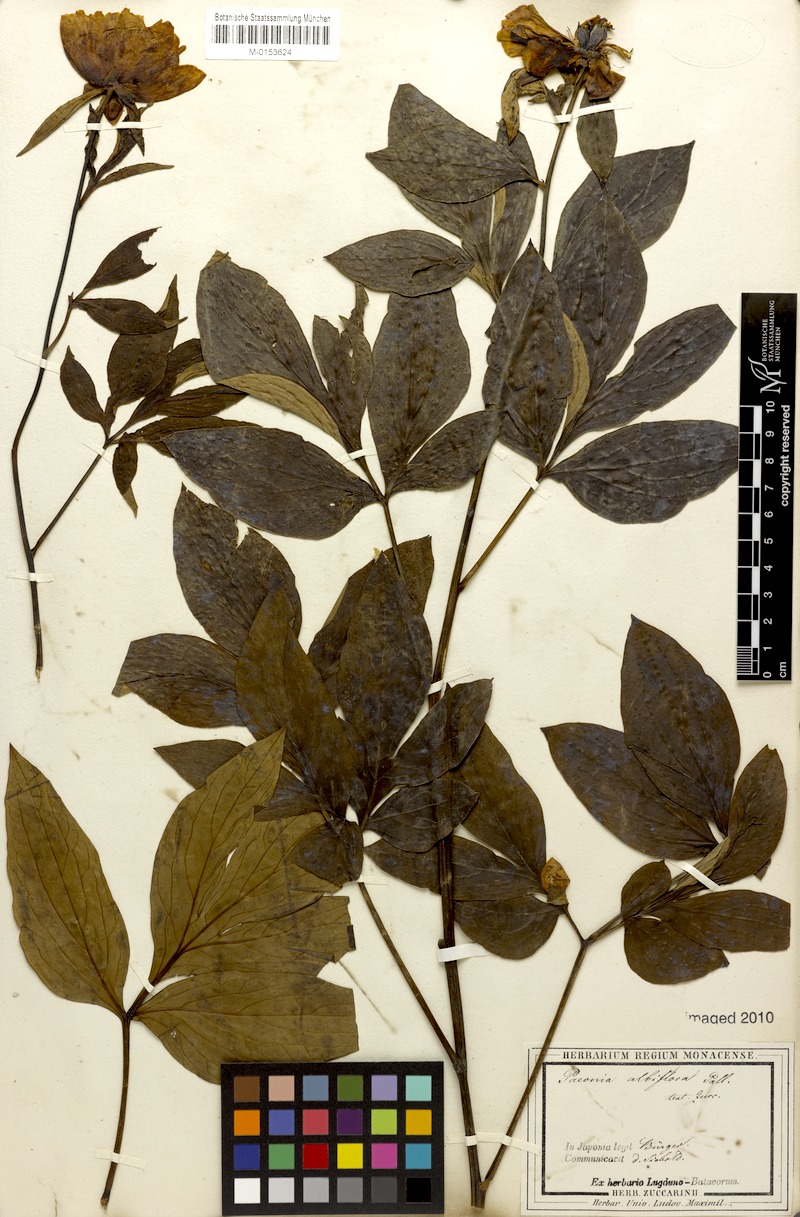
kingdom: Plantae
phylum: Tracheophyta
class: Magnoliopsida
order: Saxifragales
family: Paeoniaceae
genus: Paeonia
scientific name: Paeonia lactiflora
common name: Chinese peony
